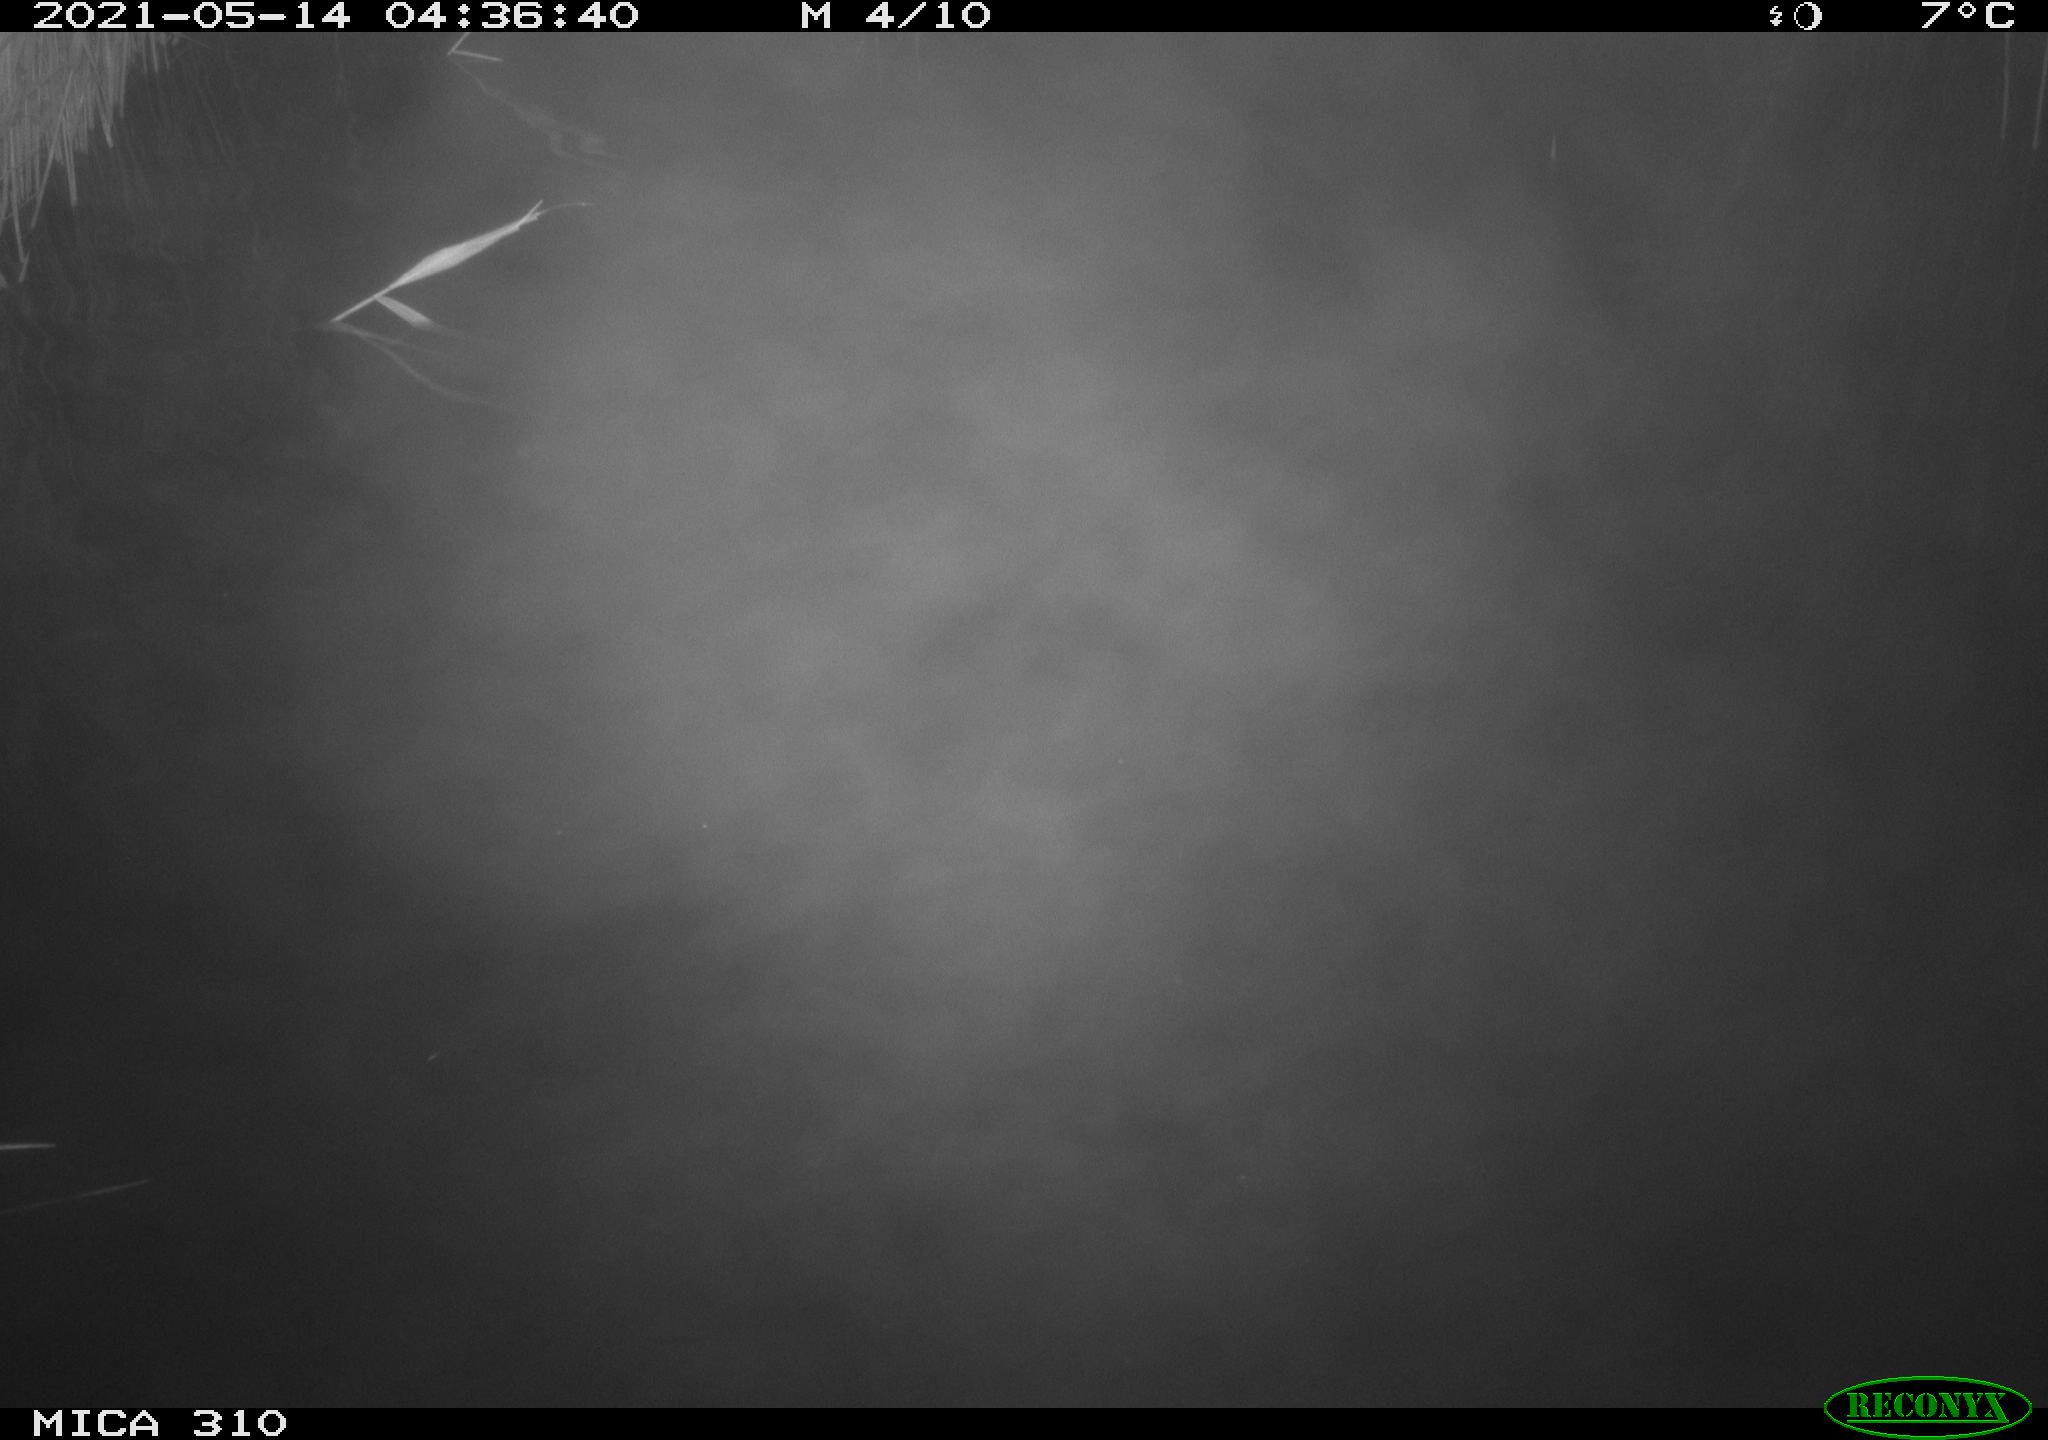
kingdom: Animalia
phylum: Chordata
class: Aves
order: Anseriformes
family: Anatidae
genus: Anas
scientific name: Anas platyrhynchos
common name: Mallard
